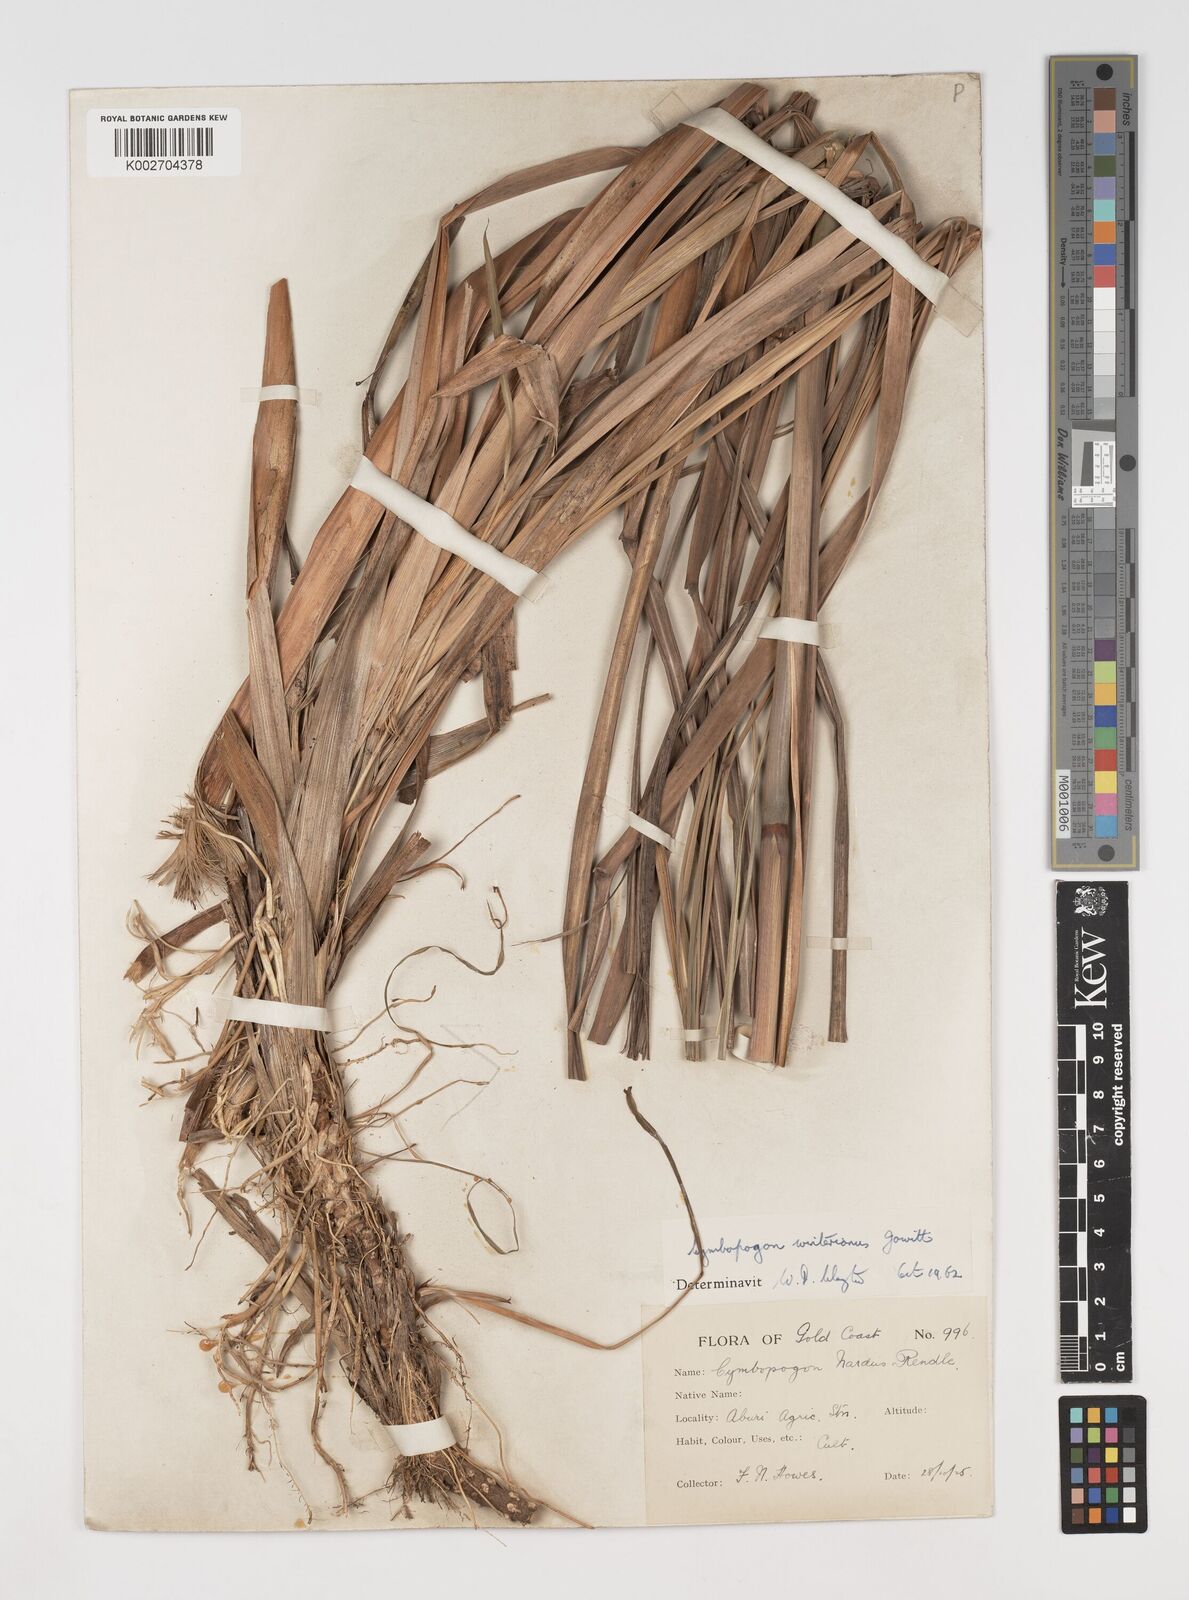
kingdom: Plantae
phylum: Tracheophyta
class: Liliopsida
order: Poales
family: Poaceae
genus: Cymbopogon
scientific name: Cymbopogon winterianus
